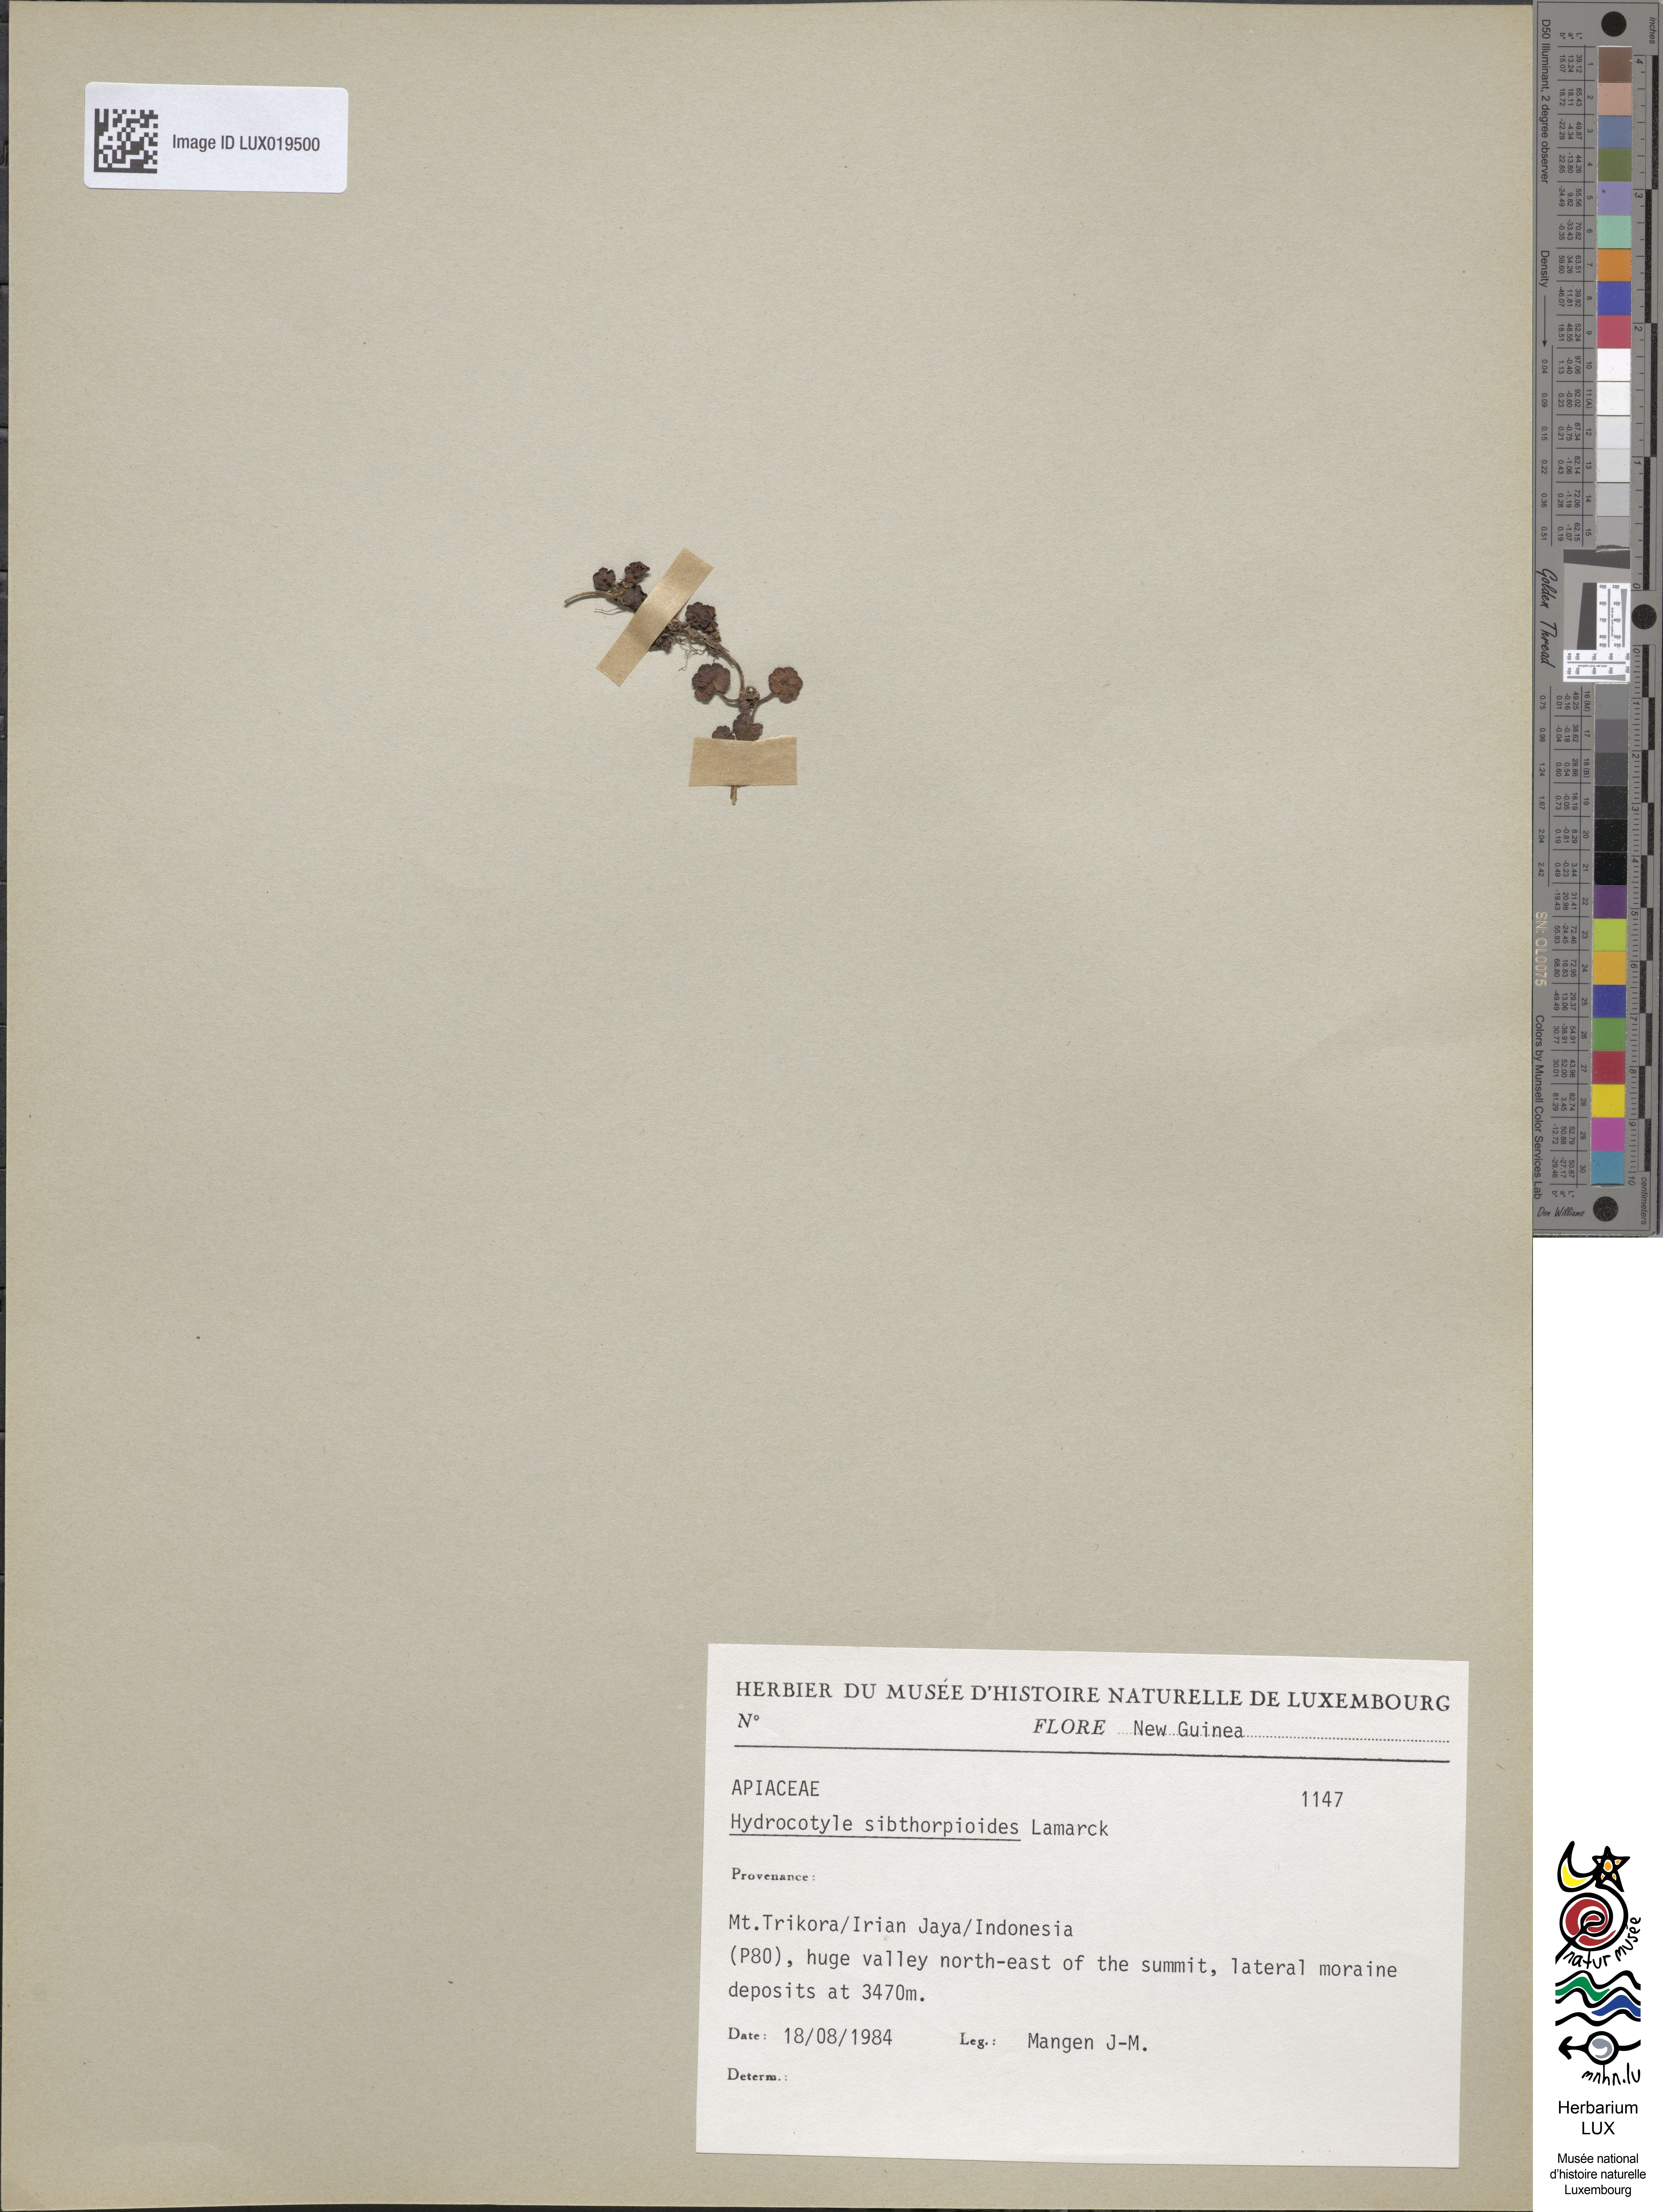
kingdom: Plantae
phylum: Tracheophyta
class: Magnoliopsida
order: Apiales
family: Araliaceae
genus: Hydrocotyle
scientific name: Hydrocotyle sibthorpioides
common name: Lawn marshpennywort
